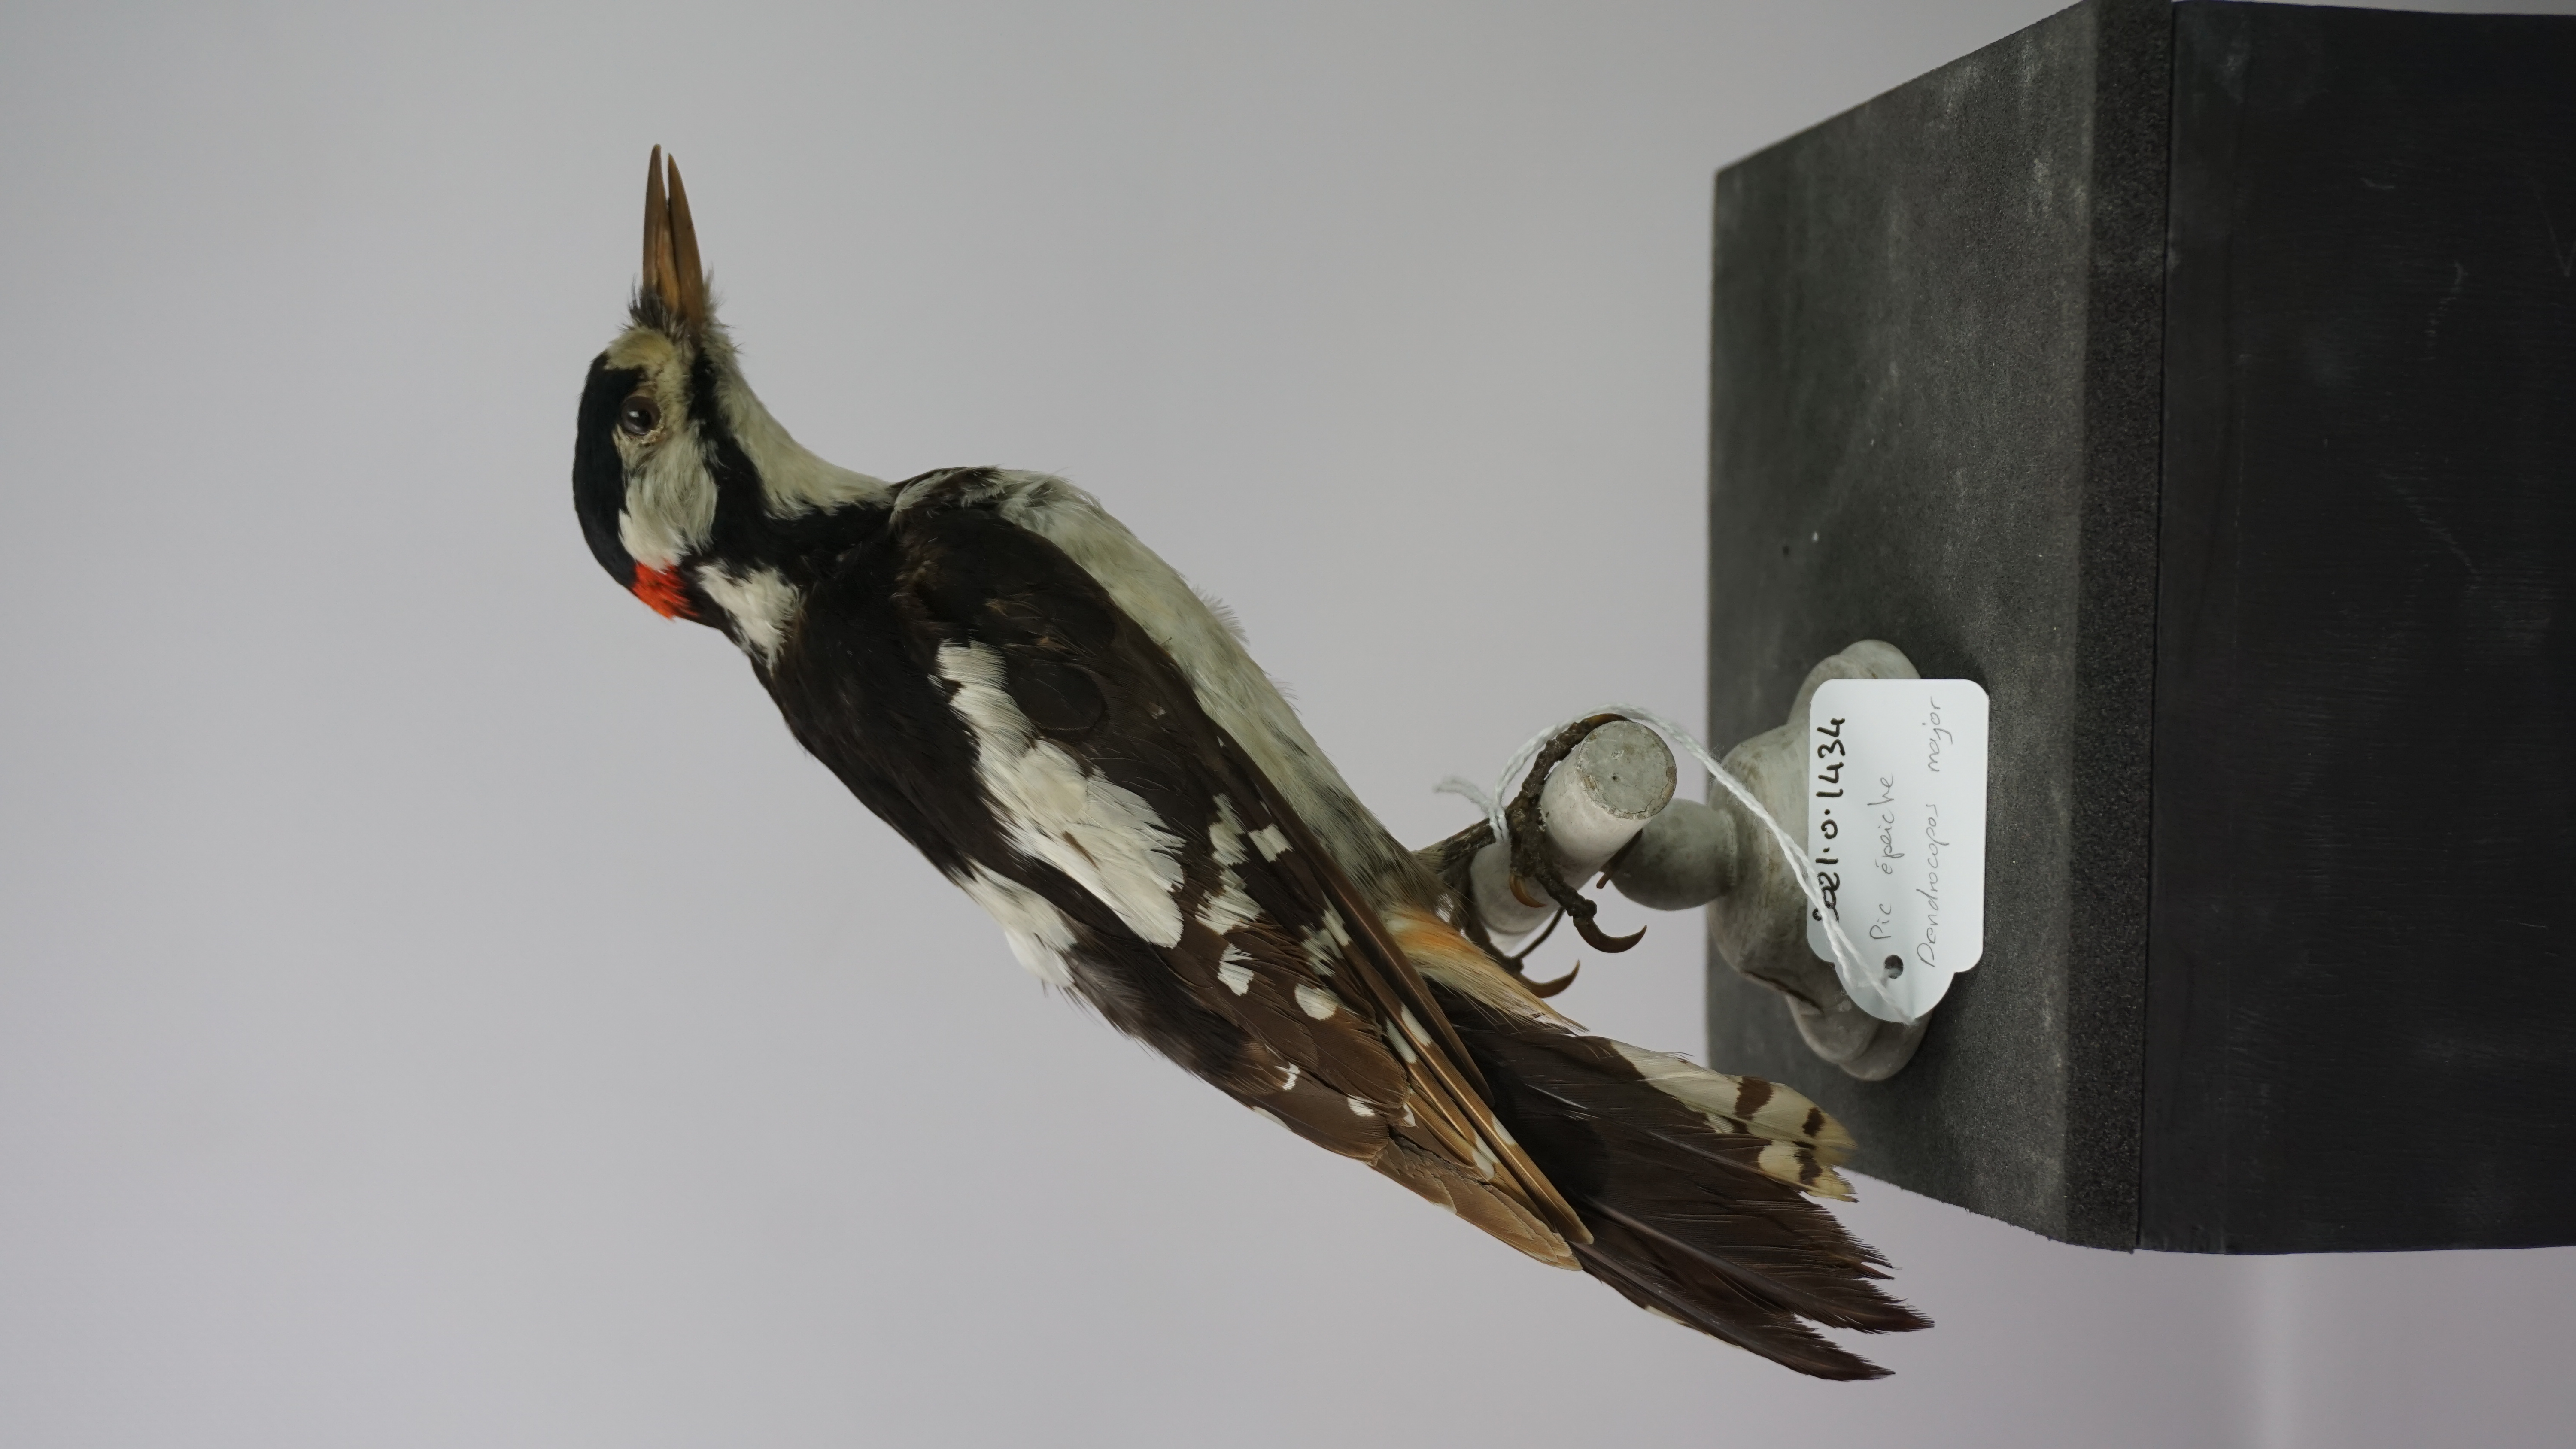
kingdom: Animalia
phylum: Chordata
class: Aves
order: Piciformes
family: Picidae
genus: Dendrocopos
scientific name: Dendrocopos major
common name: Great spotted woodpecker
